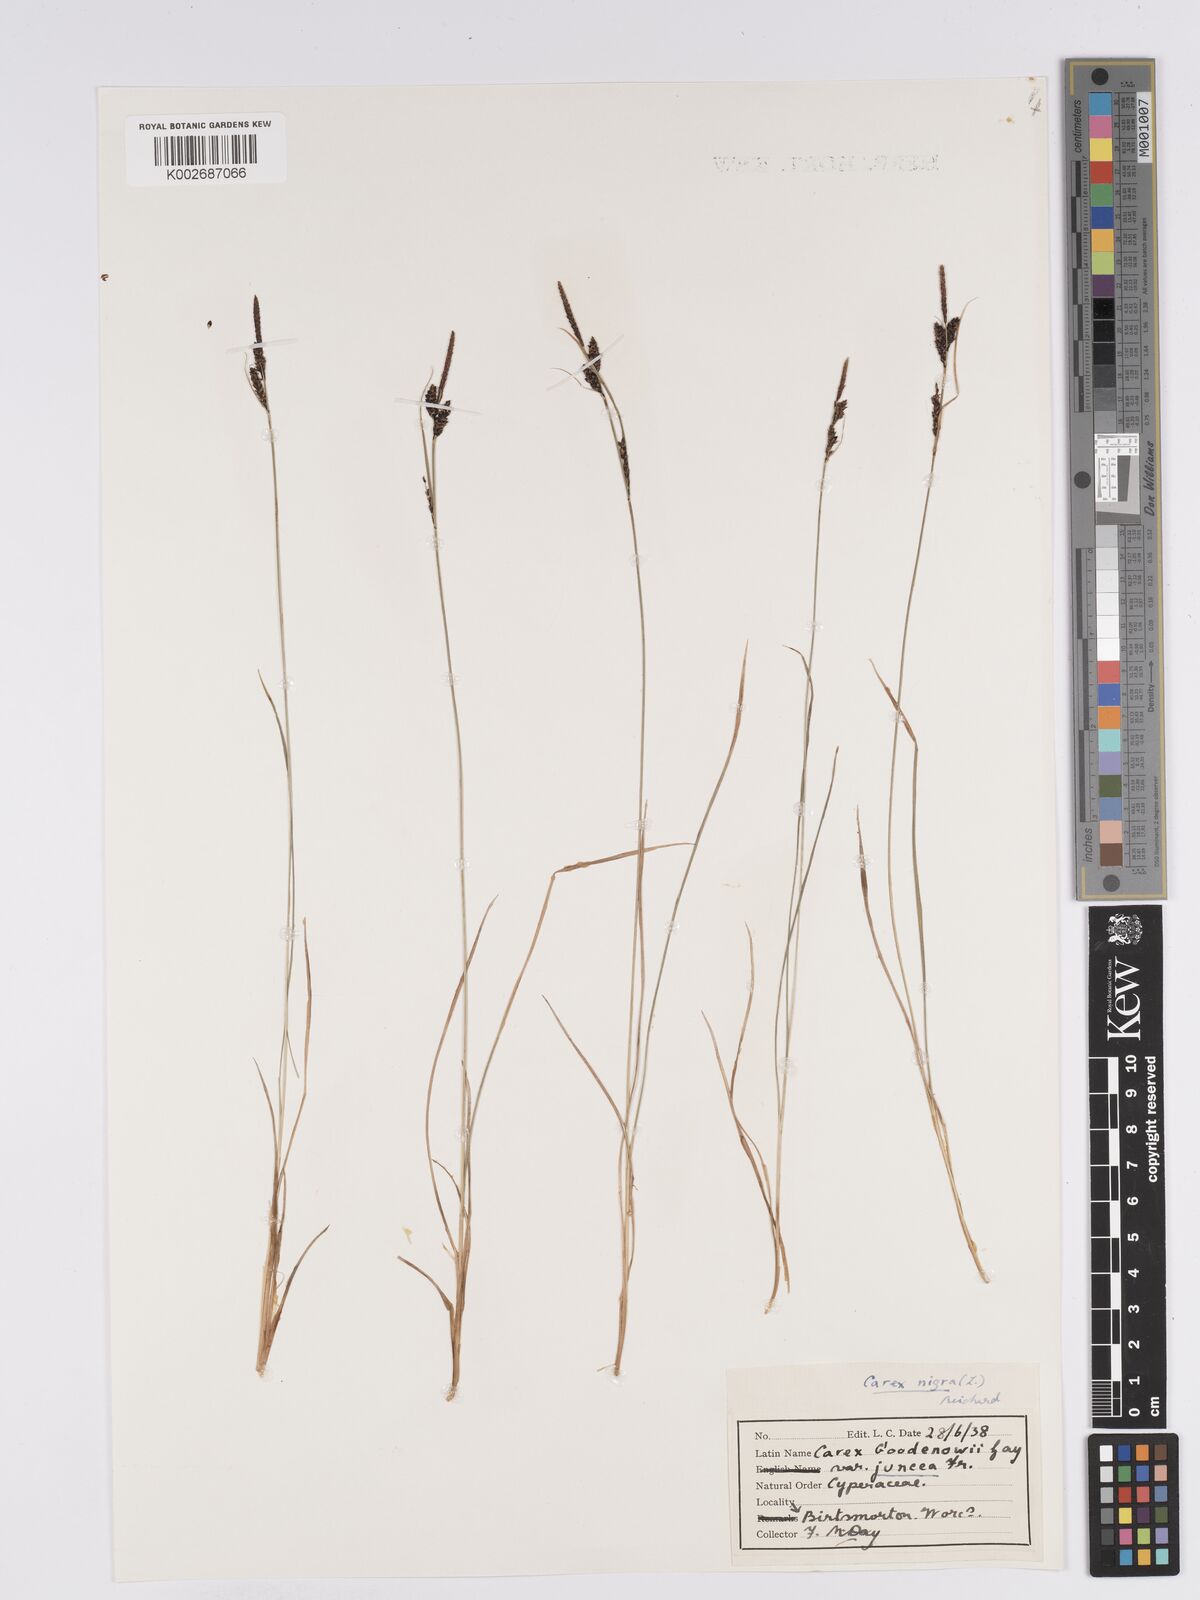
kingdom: Plantae
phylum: Tracheophyta
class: Liliopsida
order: Poales
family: Cyperaceae
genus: Carex
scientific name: Carex nigra
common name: Common sedge
